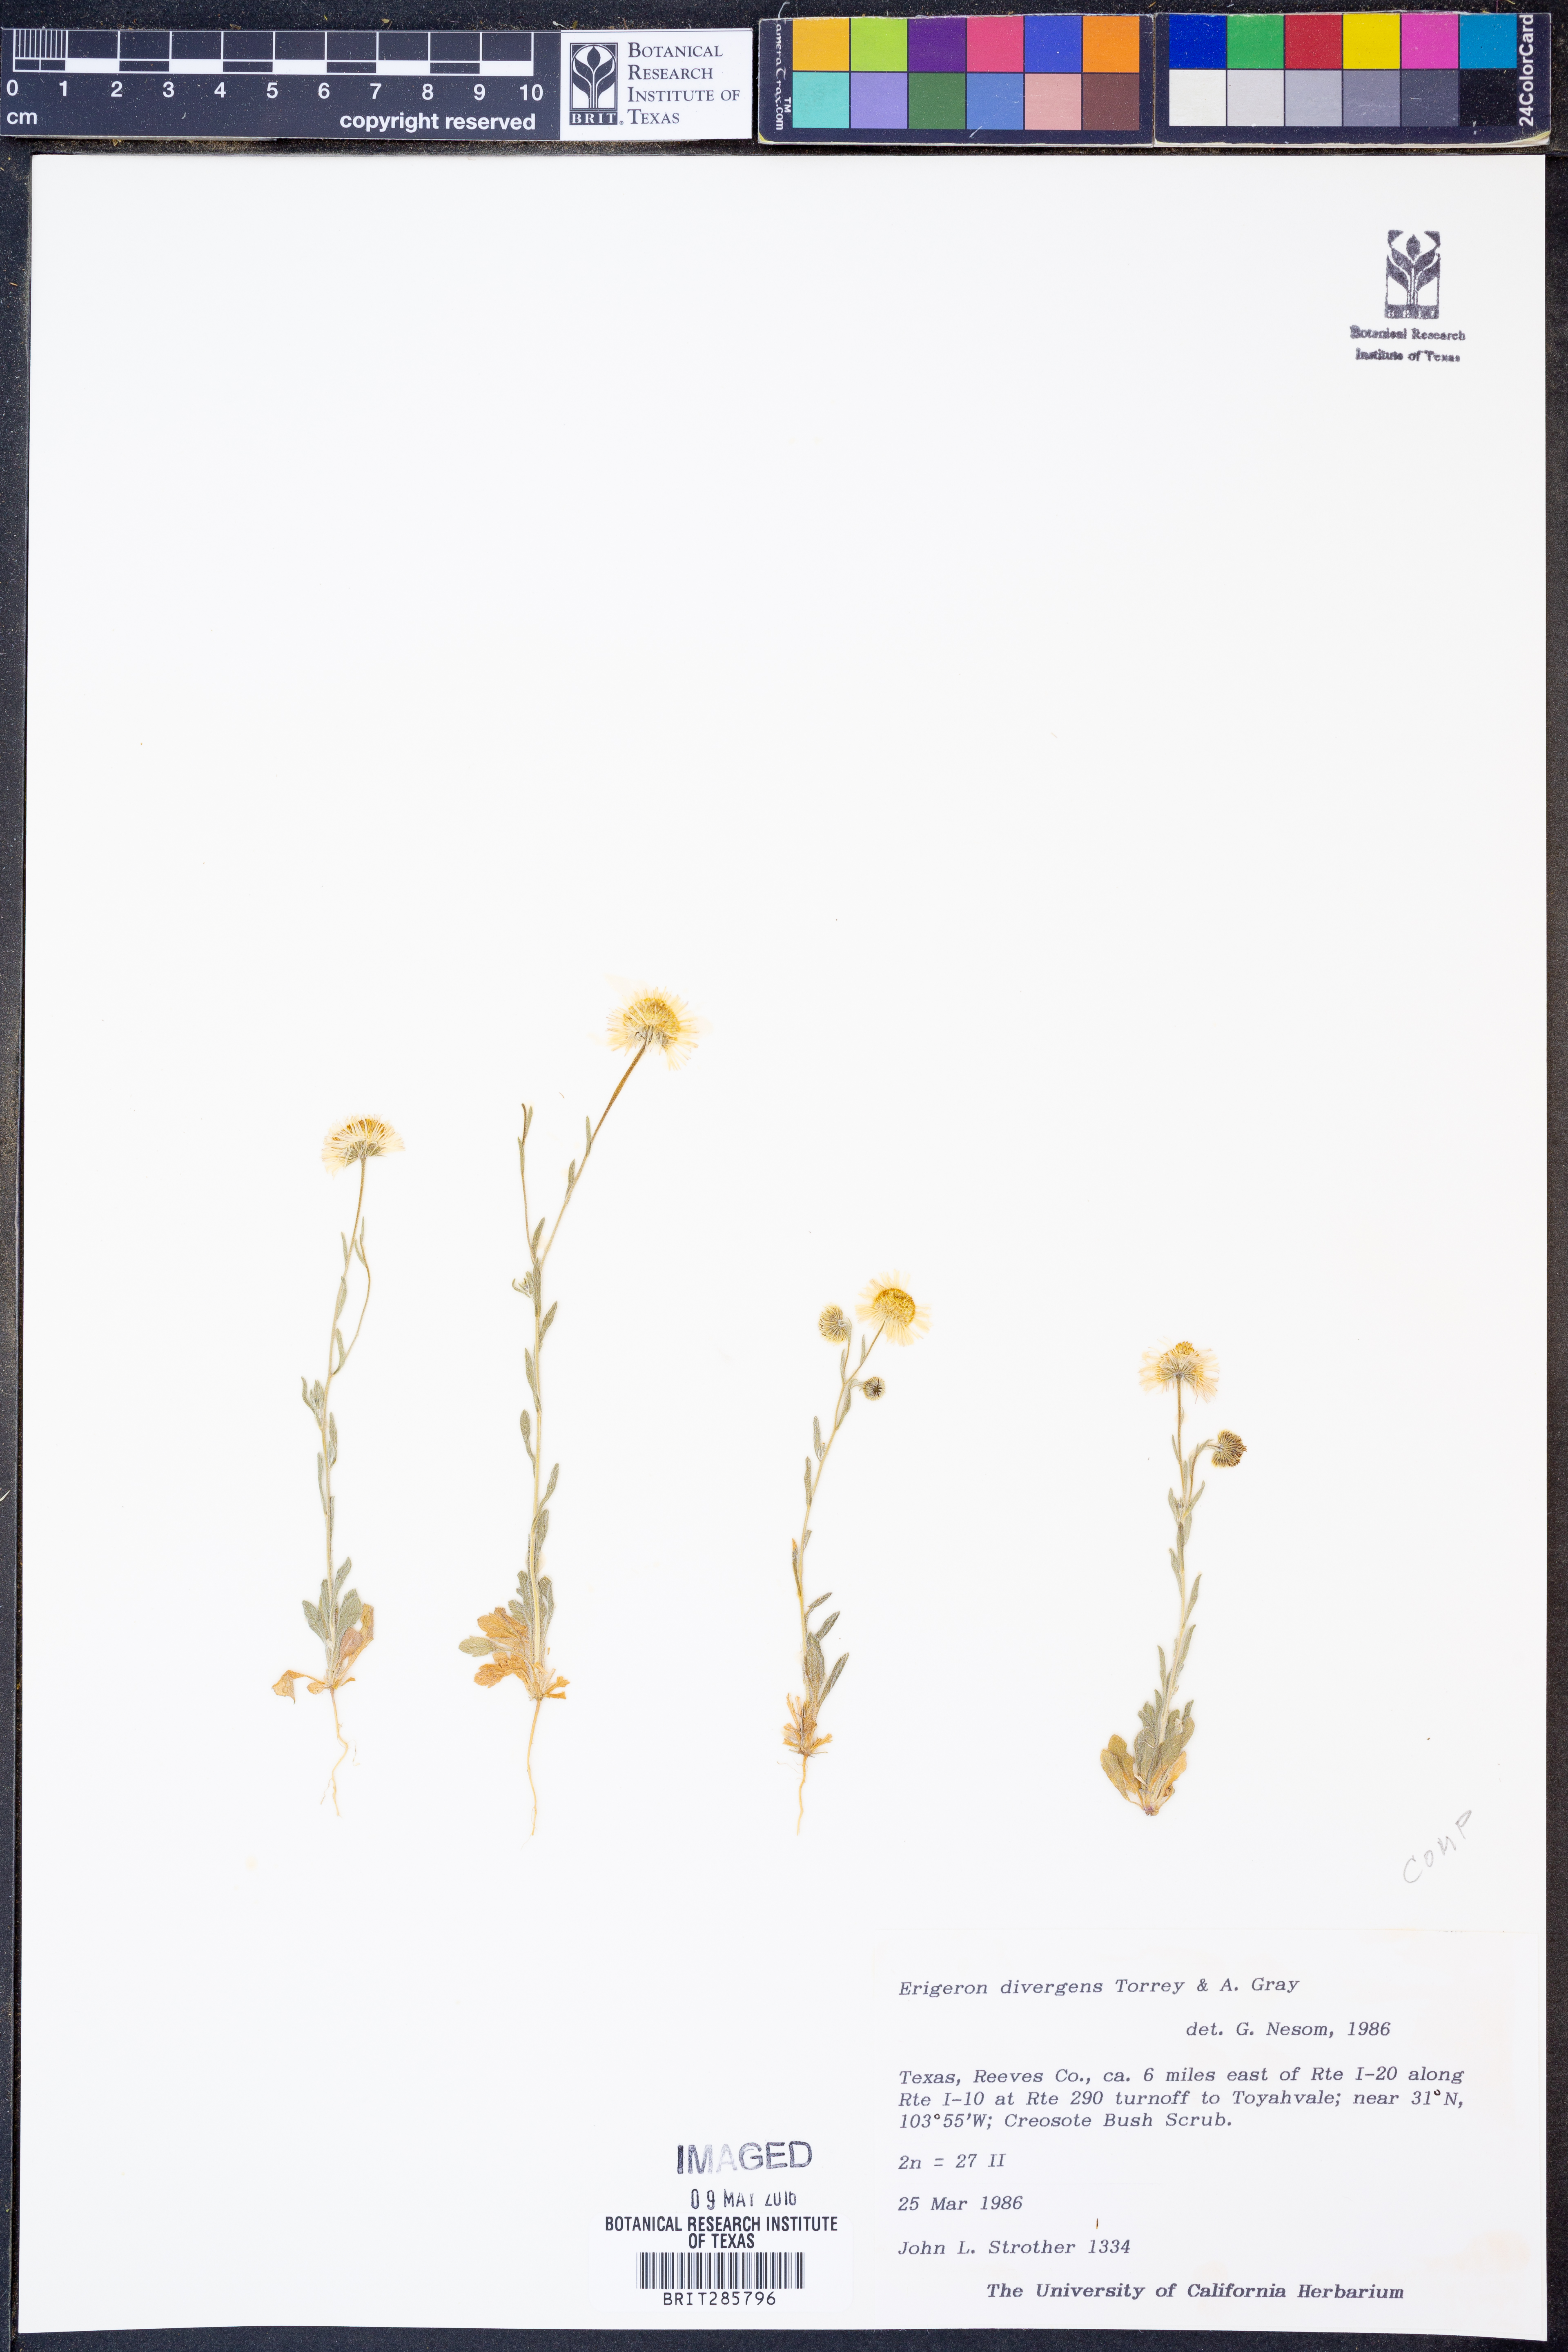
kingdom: Plantae
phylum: Tracheophyta
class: Magnoliopsida
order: Asterales
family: Asteraceae
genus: Erigeron
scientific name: Erigeron divergens
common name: Diffuse fleabane
